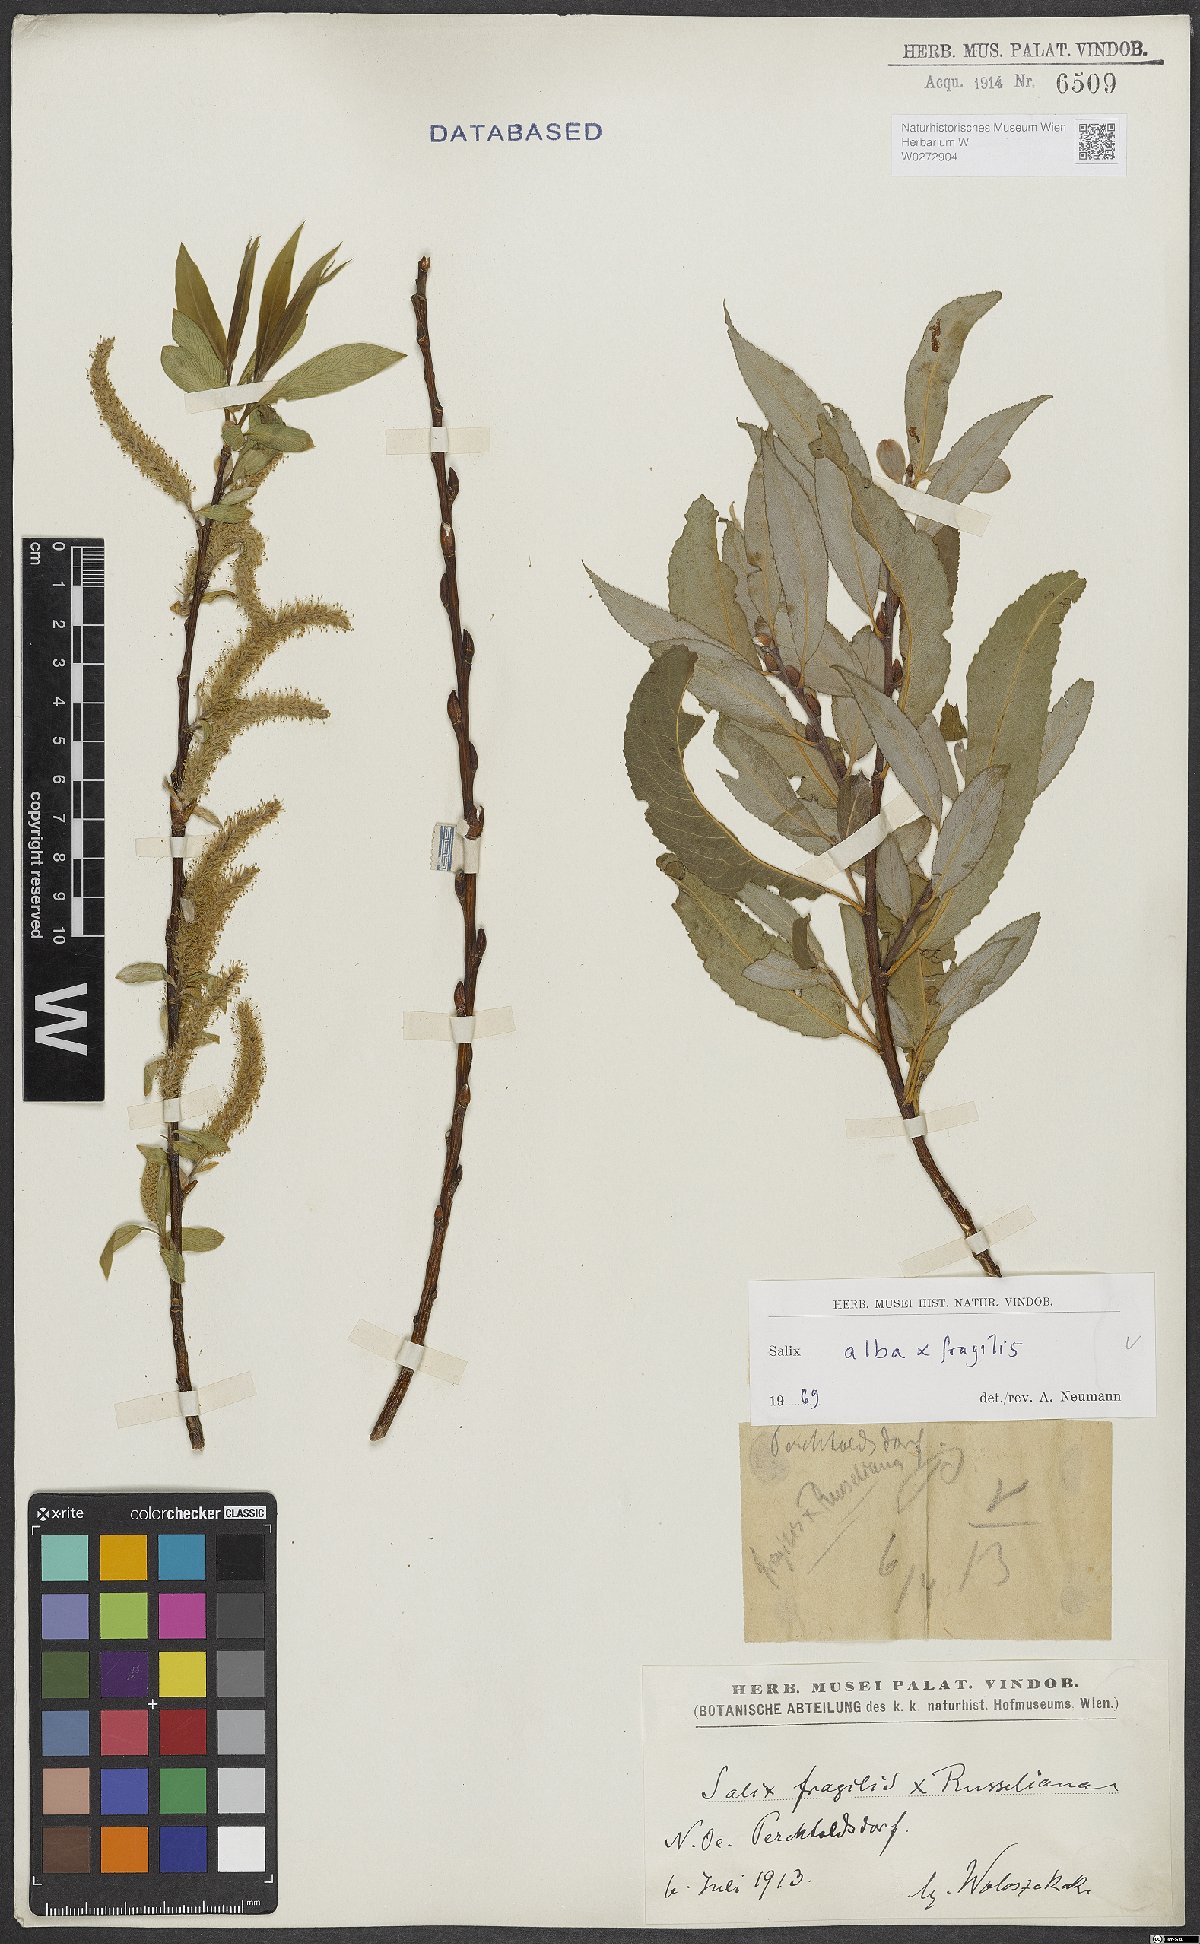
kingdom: Plantae
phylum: Tracheophyta
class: Magnoliopsida
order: Malpighiales
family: Salicaceae
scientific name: Salicaceae
